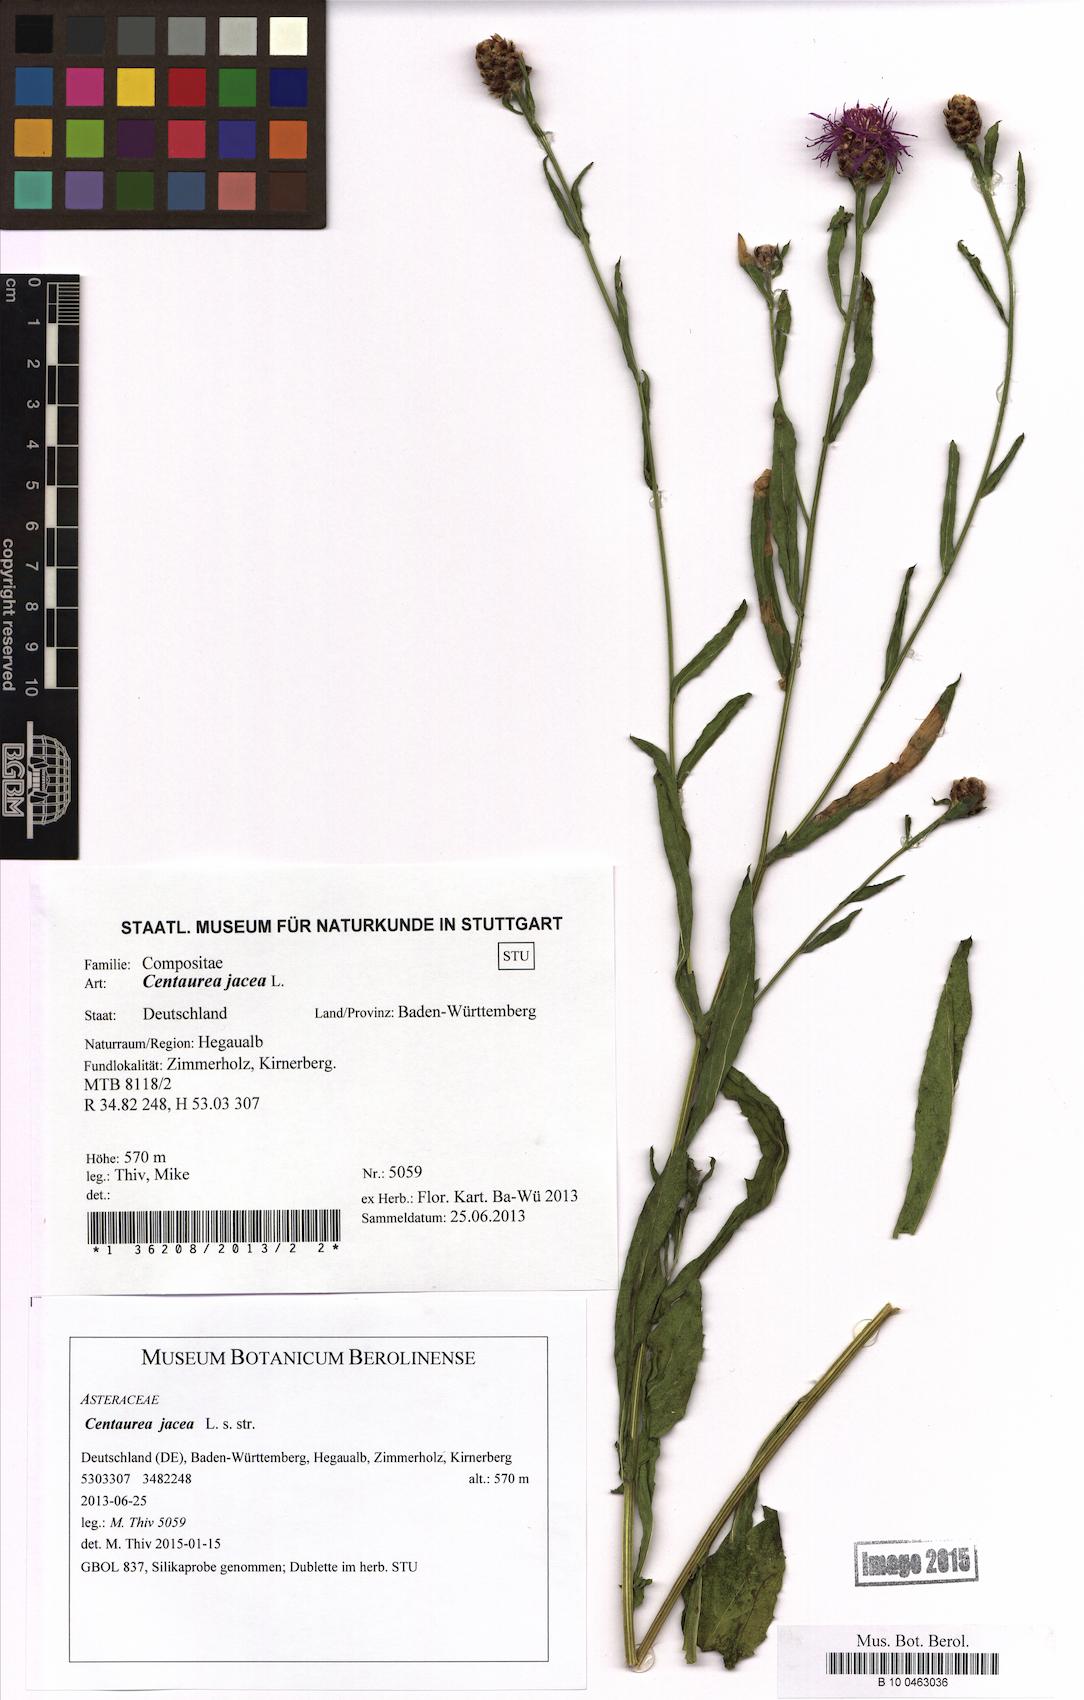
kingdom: Plantae
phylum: Tracheophyta
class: Magnoliopsida
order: Asterales
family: Asteraceae
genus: Centaurea
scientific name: Centaurea jacea
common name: Brown knapweed
